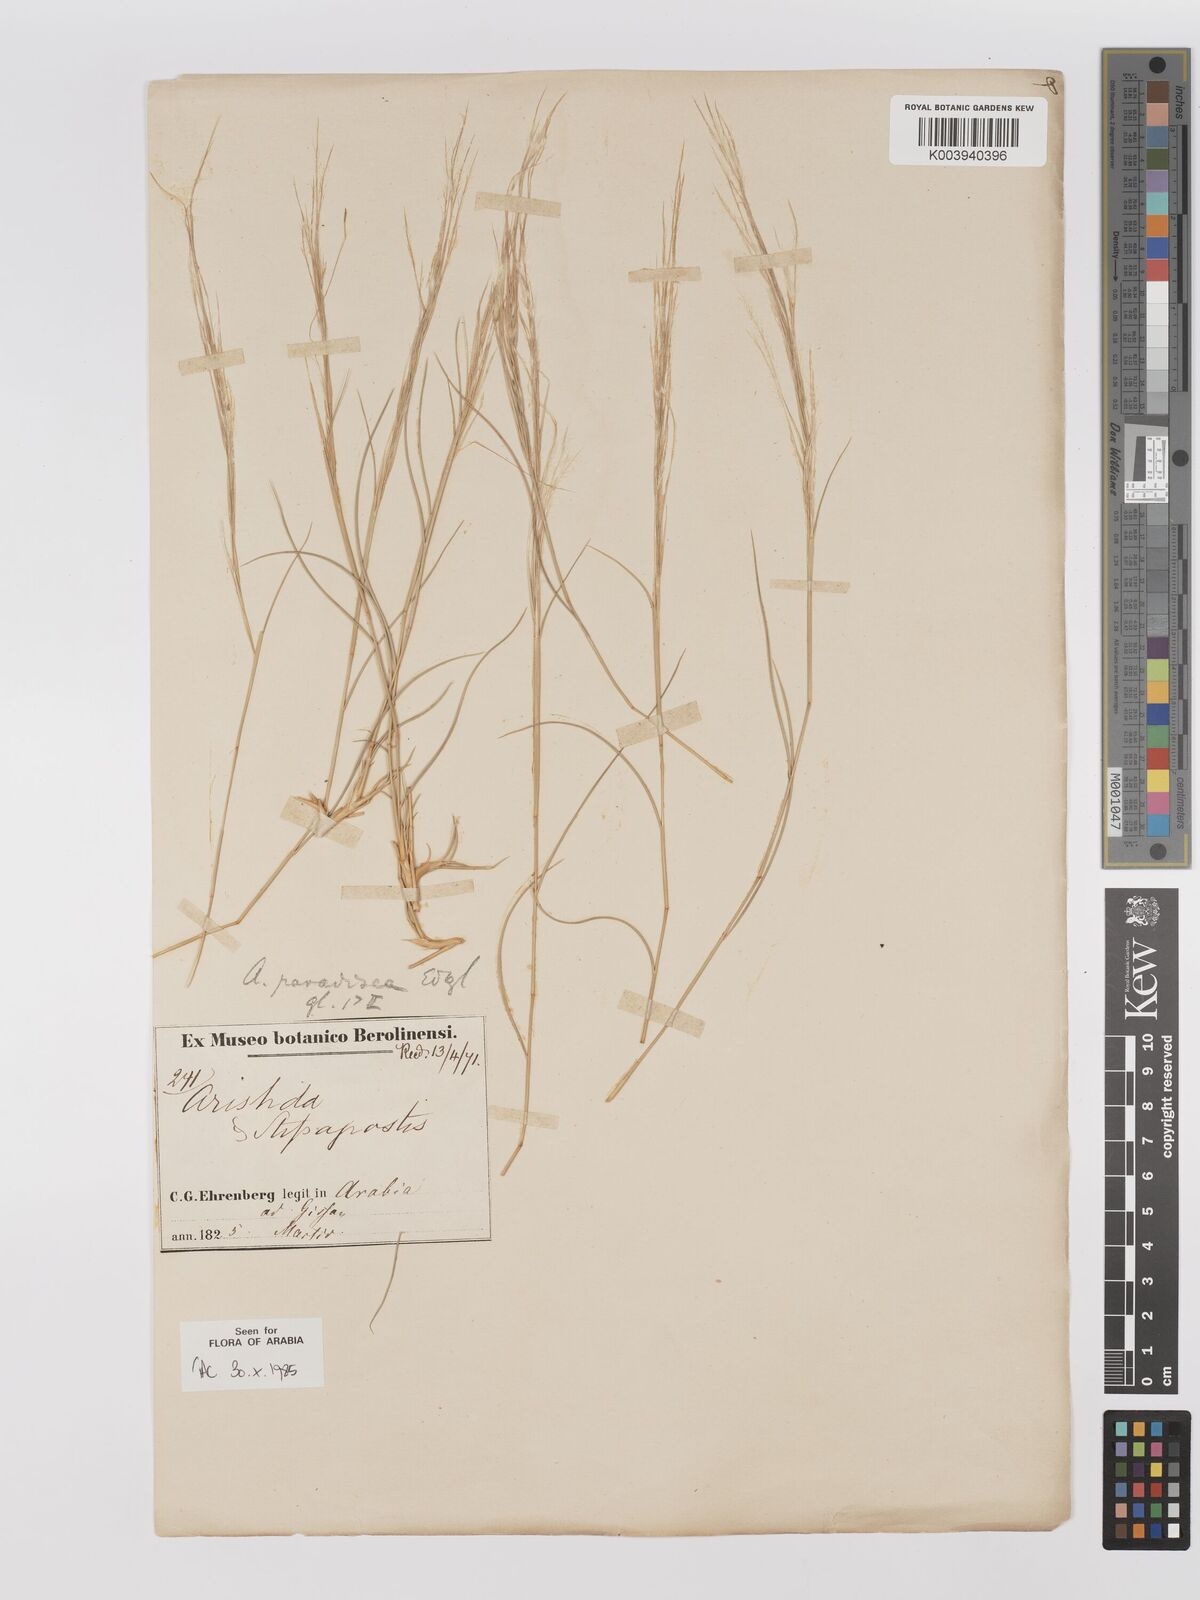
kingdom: Plantae
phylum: Tracheophyta
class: Liliopsida
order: Poales
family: Poaceae
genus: Stipagrostis
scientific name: Stipagrostis paradisea
